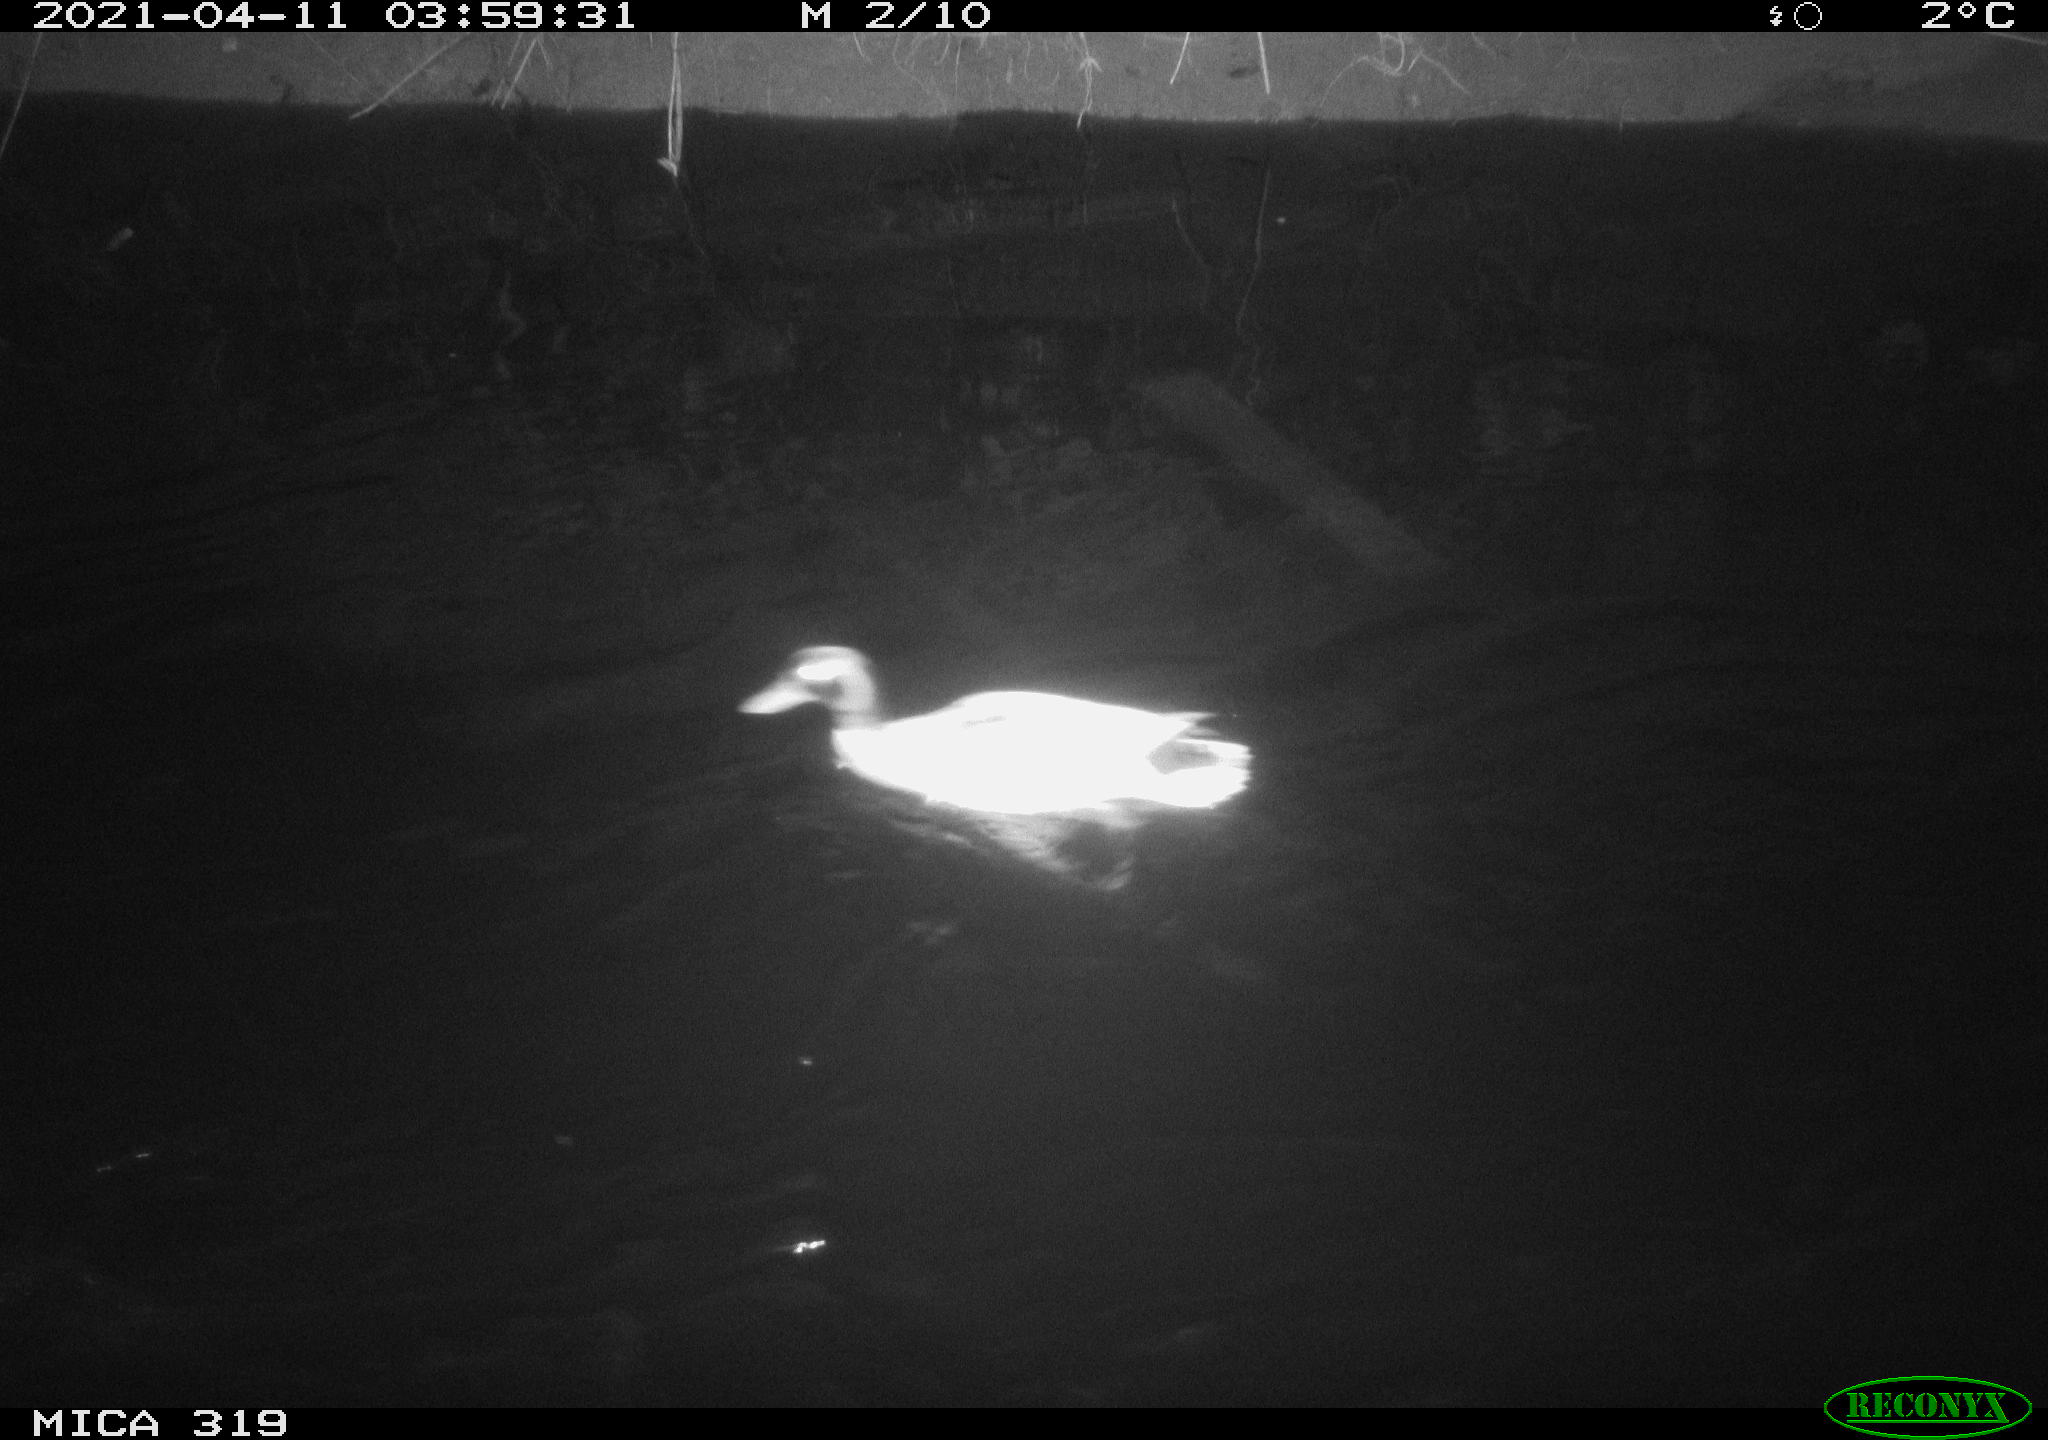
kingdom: Animalia
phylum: Chordata
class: Aves
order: Anseriformes
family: Anatidae
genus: Anas
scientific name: Anas platyrhynchos
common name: Mallard
